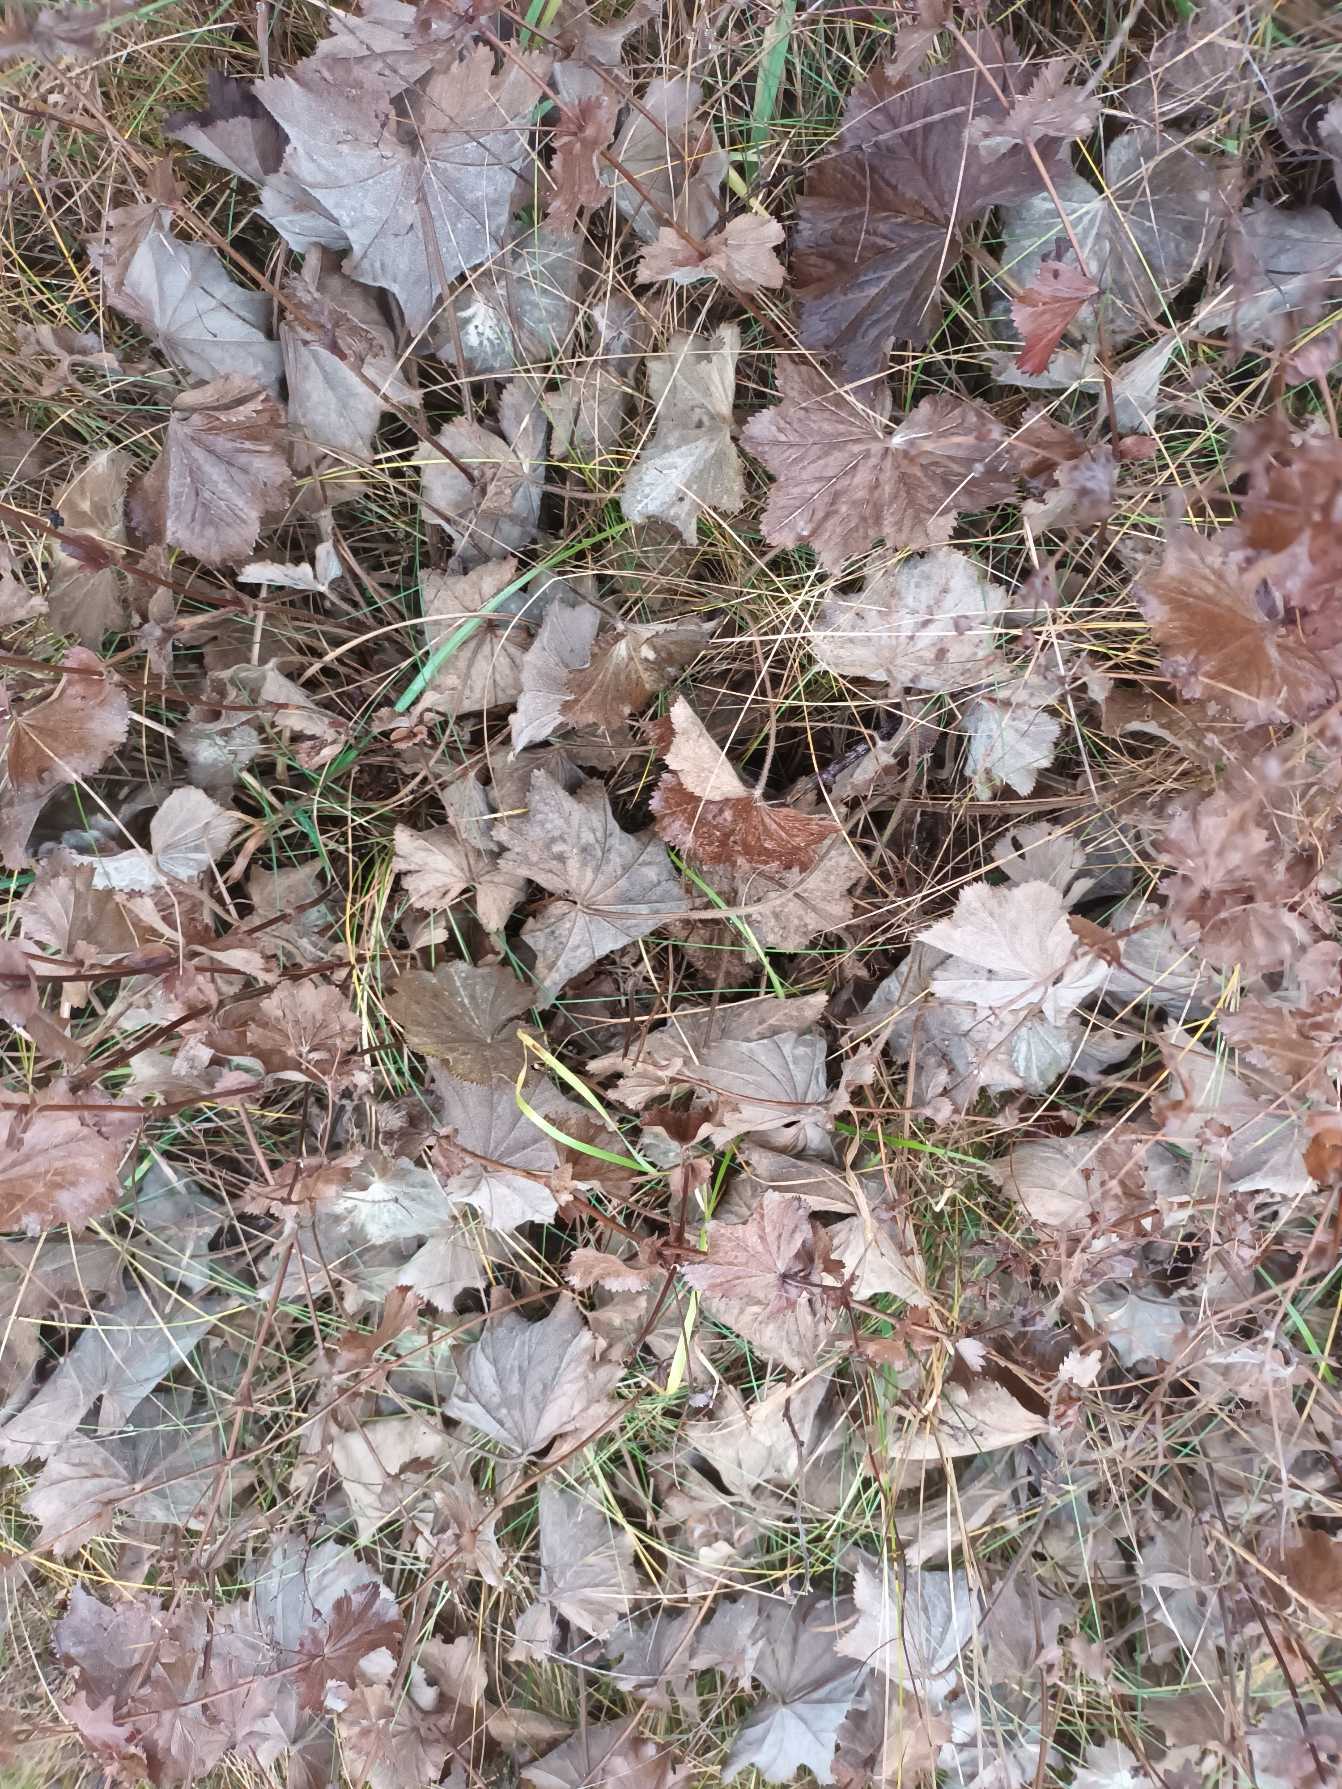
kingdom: Plantae
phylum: Tracheophyta
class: Magnoliopsida
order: Rosales
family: Rosaceae
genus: Alchemilla
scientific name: Alchemilla mollis
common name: Lådden løvefod
